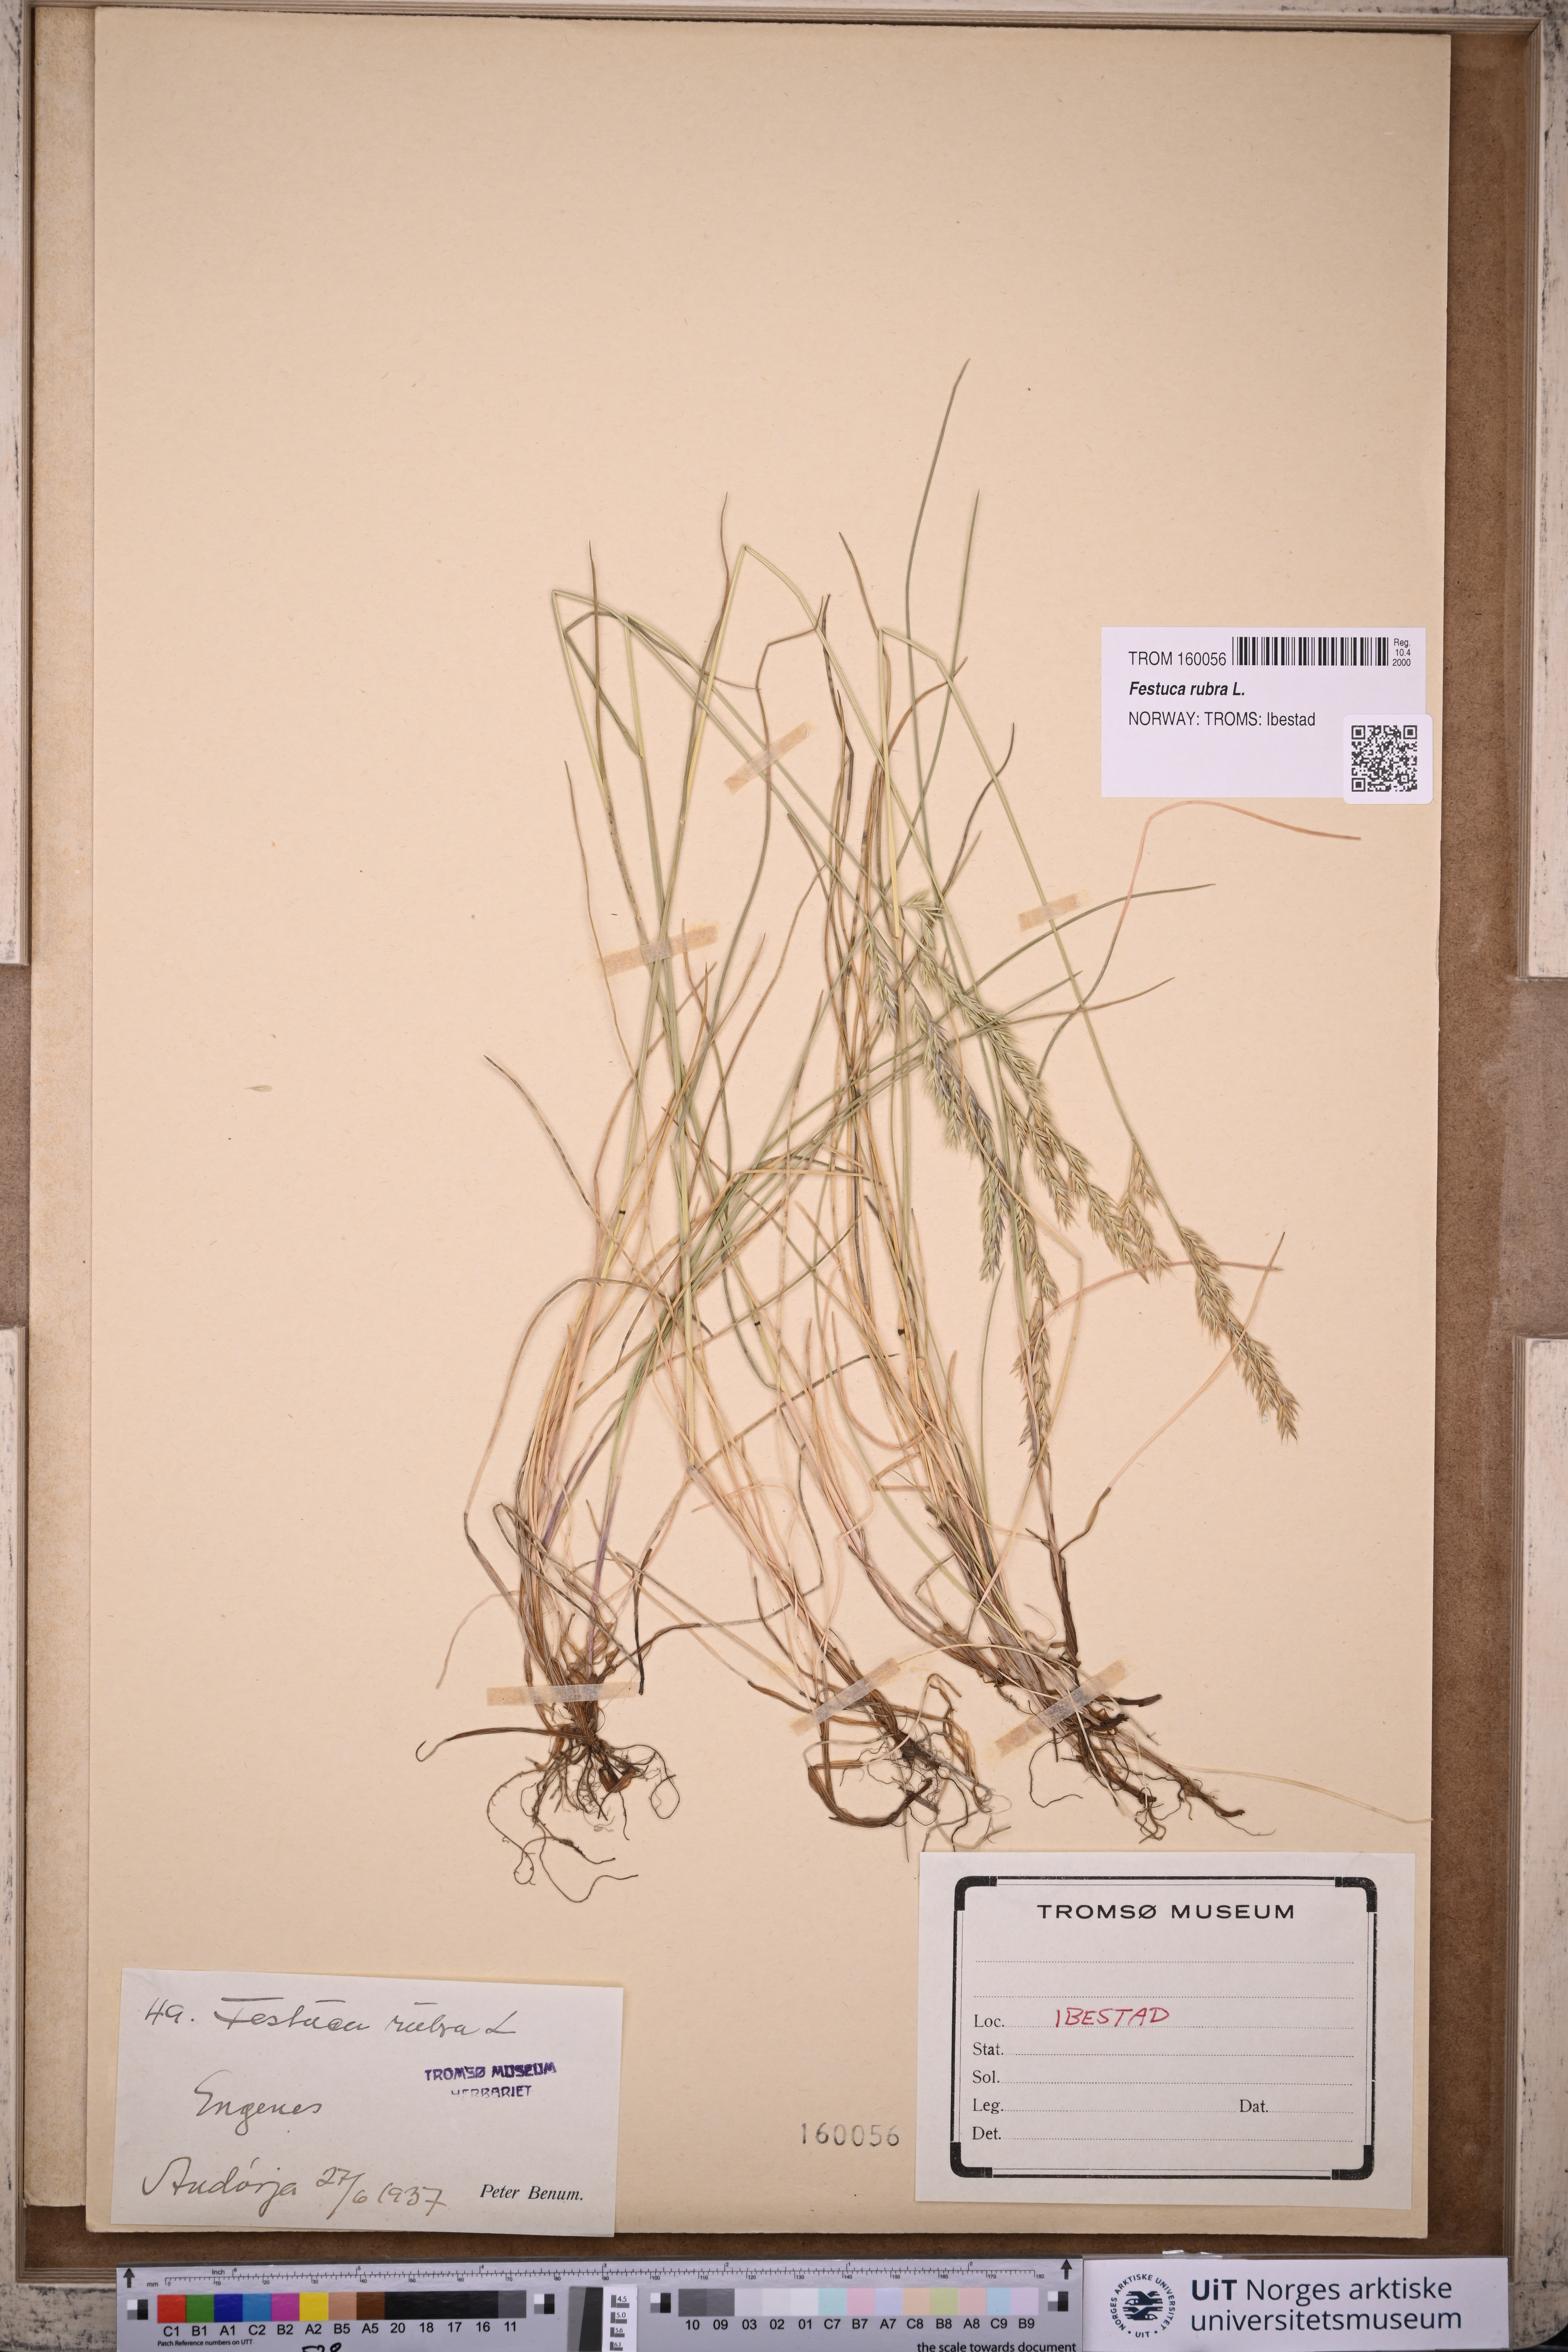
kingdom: Plantae
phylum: Tracheophyta
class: Liliopsida
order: Poales
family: Poaceae
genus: Festuca
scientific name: Festuca rubra
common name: Red fescue
